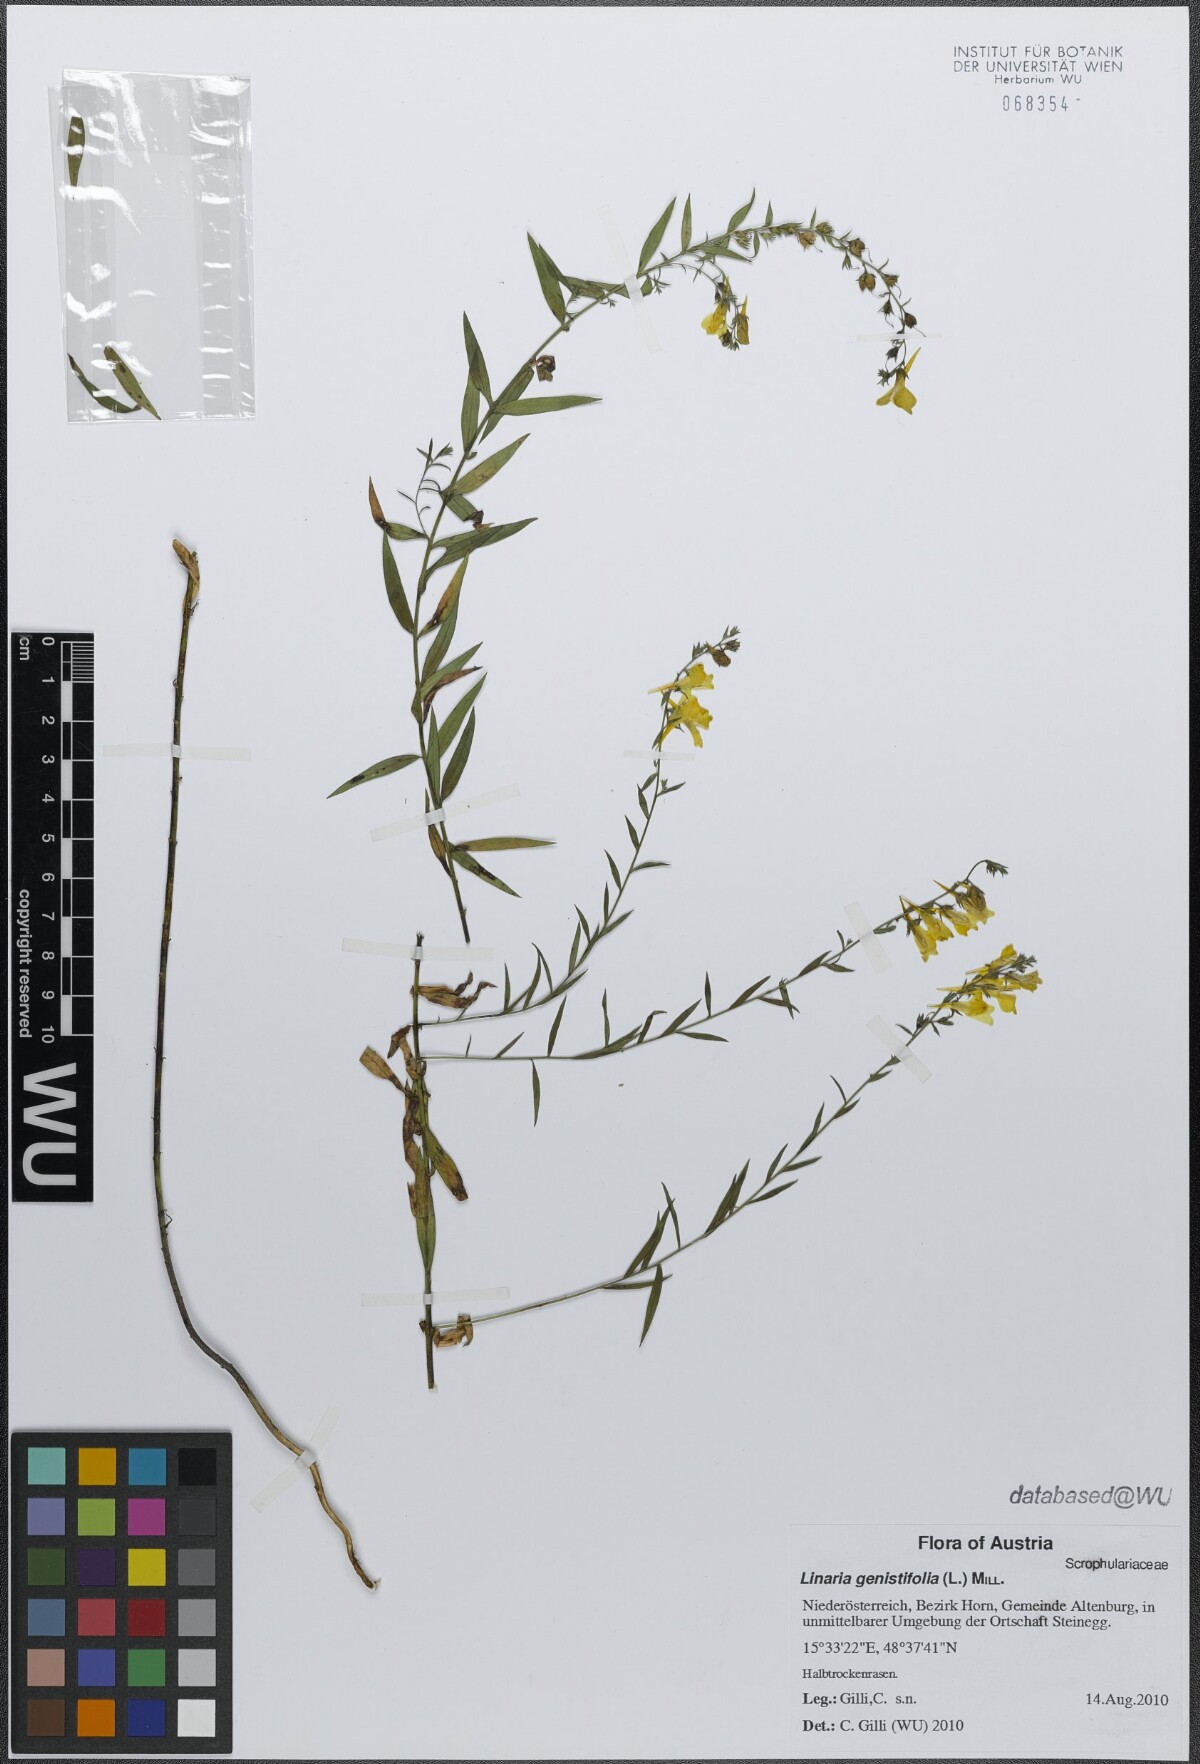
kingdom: Plantae
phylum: Tracheophyta
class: Magnoliopsida
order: Lamiales
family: Plantaginaceae
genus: Linaria
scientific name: Linaria genistifolia
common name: Broomleaf toadflax
